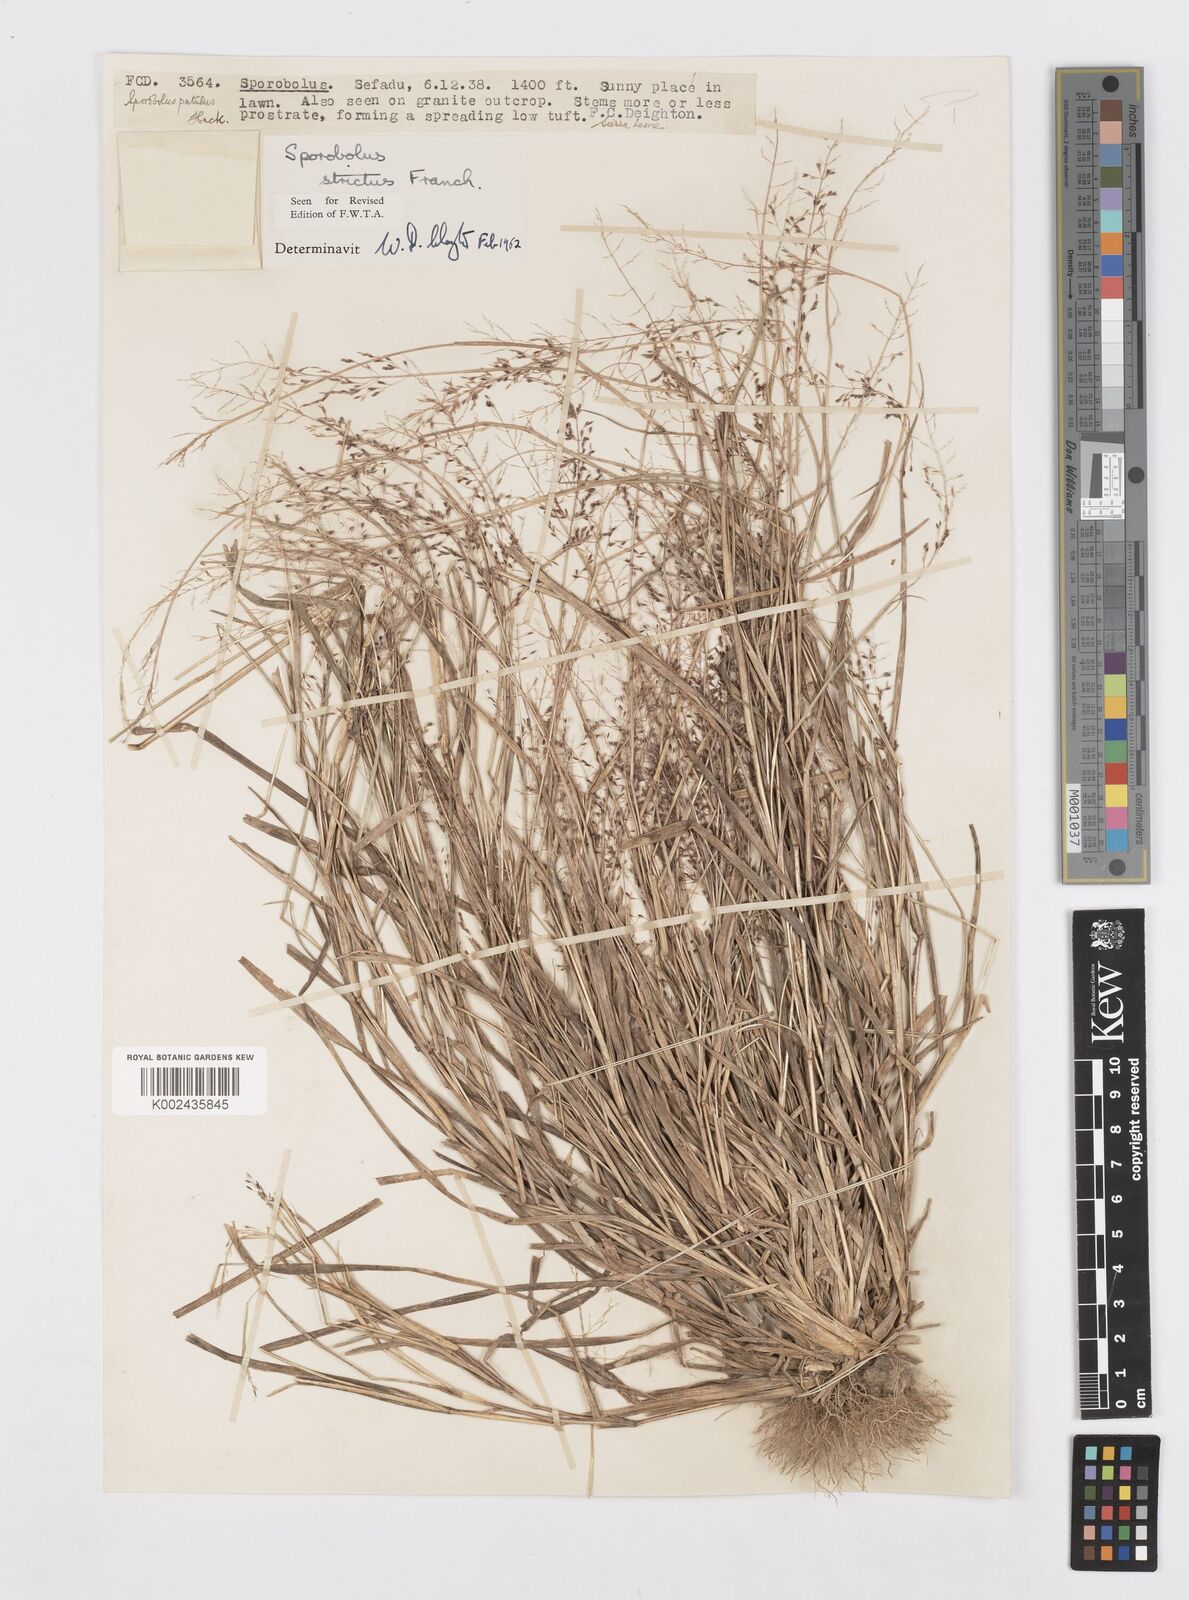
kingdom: Plantae
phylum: Tracheophyta
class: Liliopsida
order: Poales
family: Poaceae
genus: Sporobolus
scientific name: Sporobolus paniculatus
